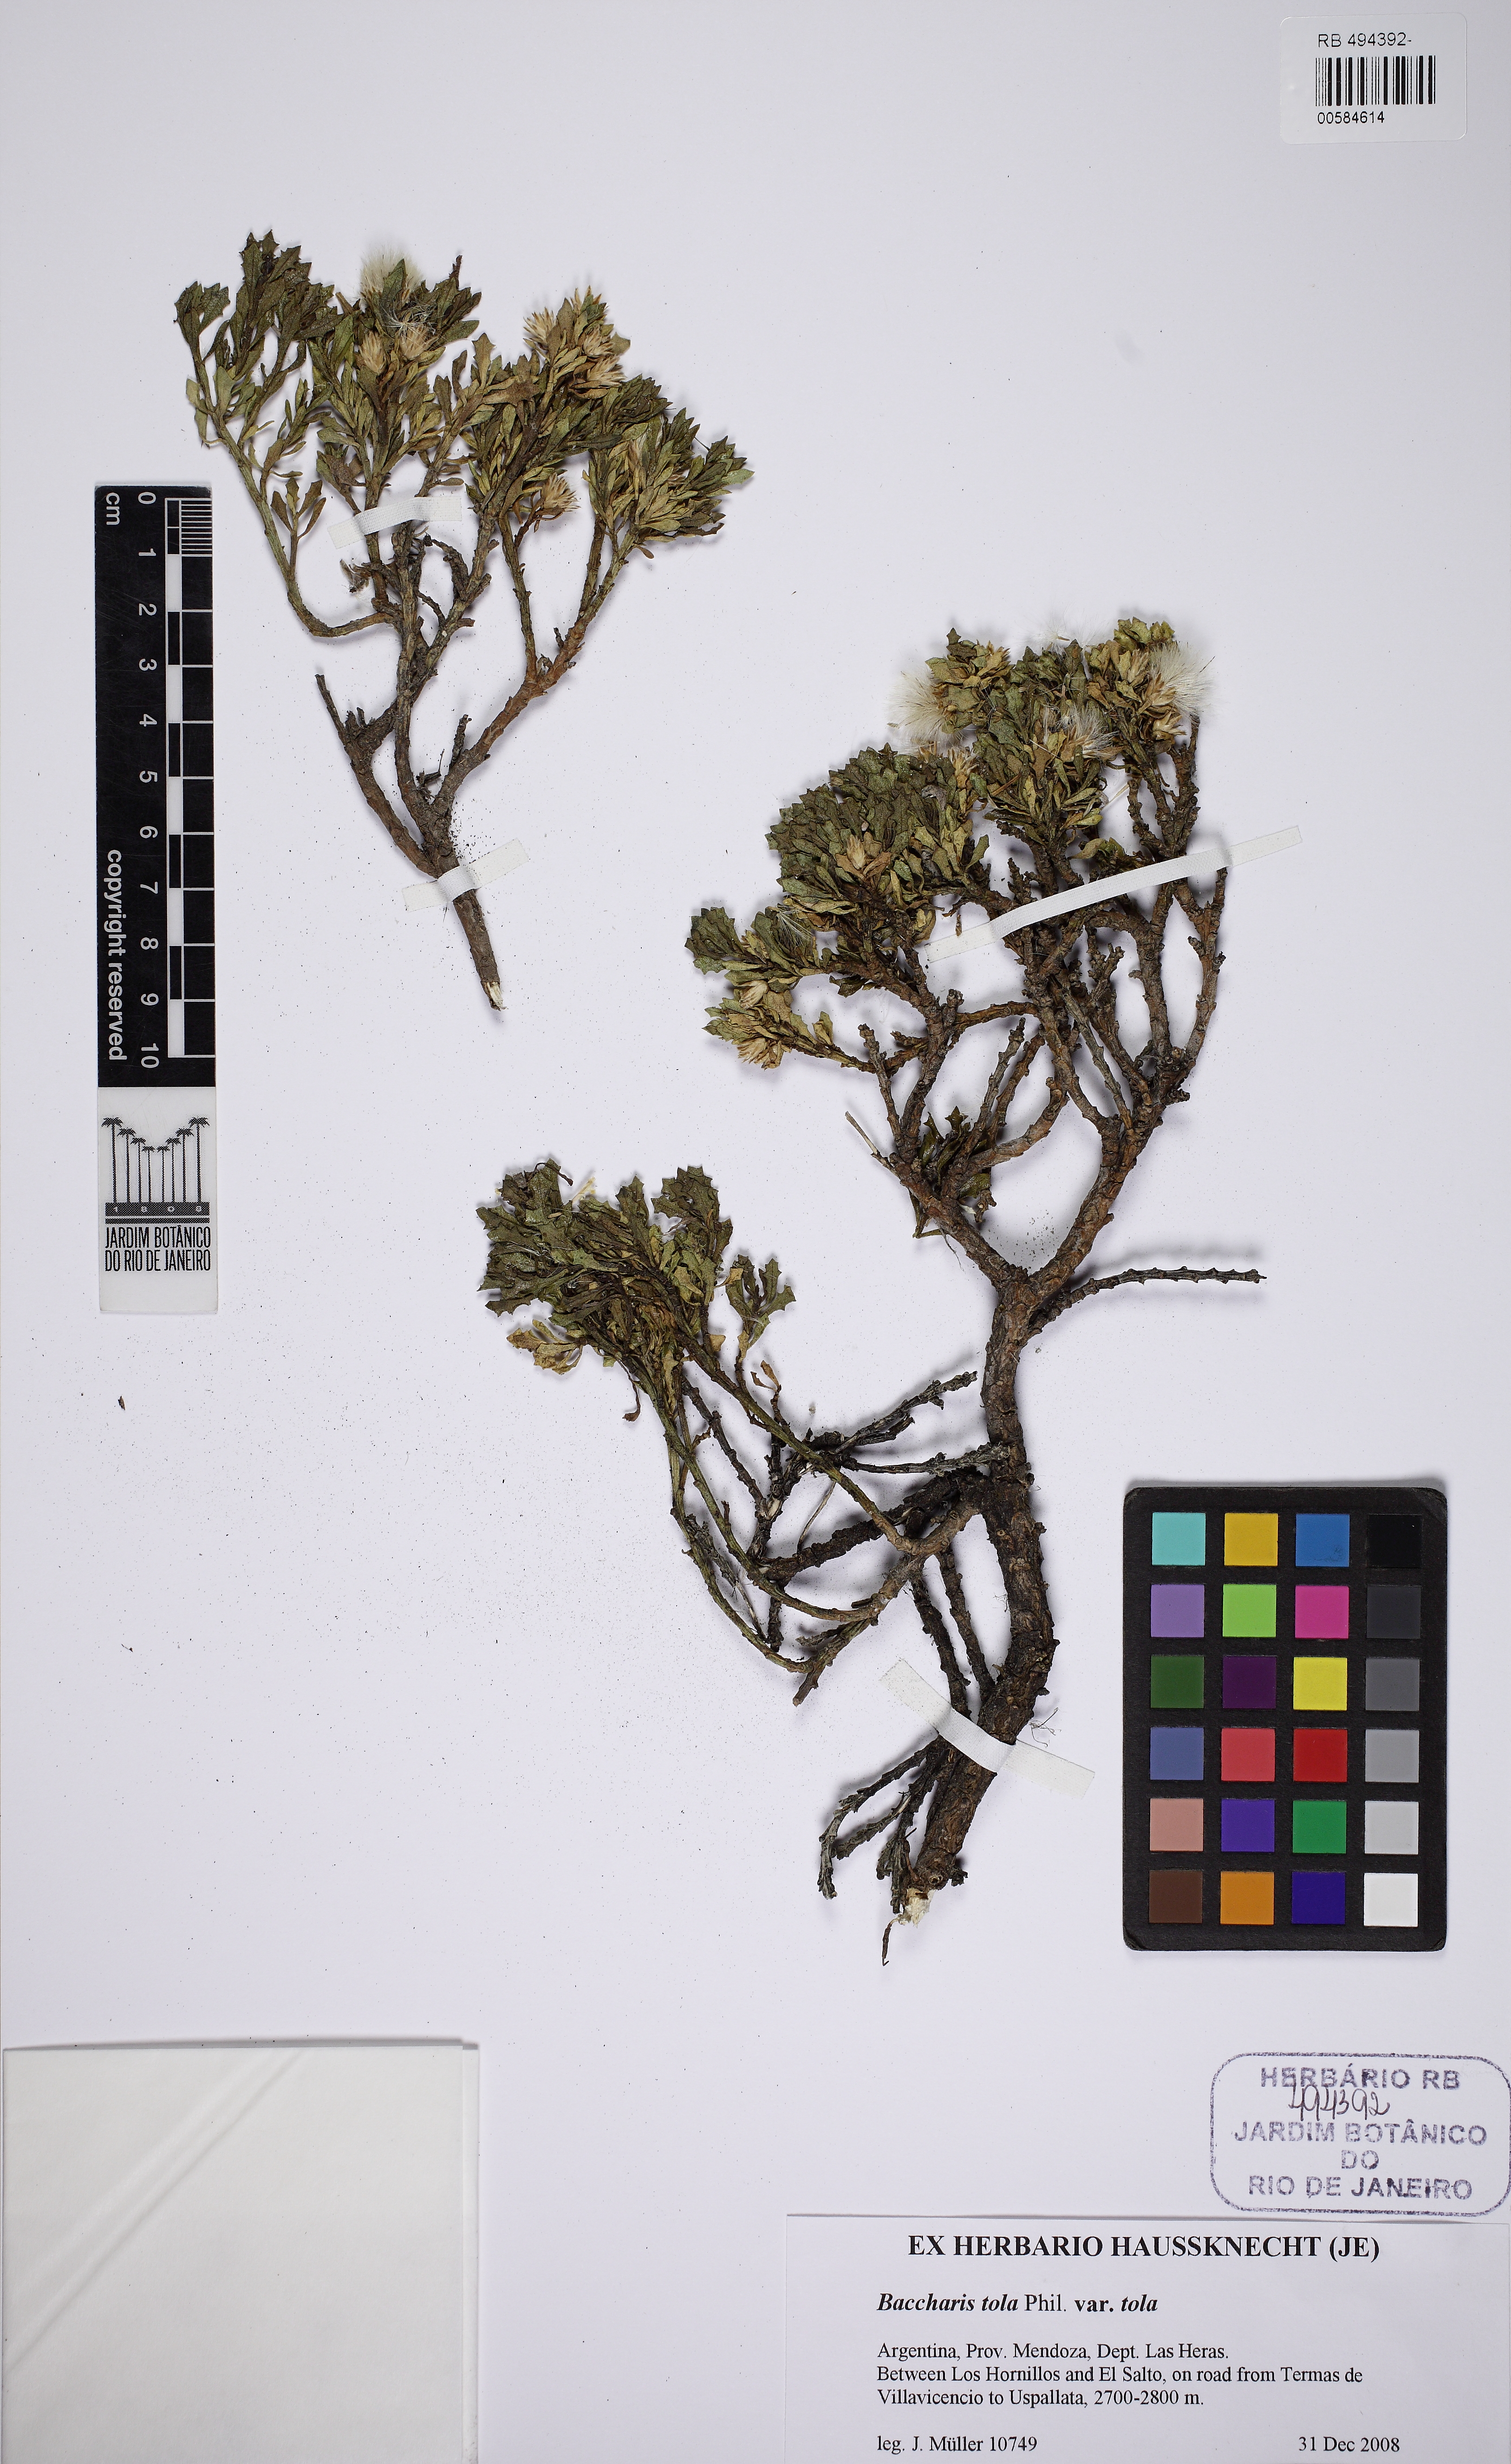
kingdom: Plantae
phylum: Tracheophyta
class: Magnoliopsida
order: Asterales
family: Asteraceae
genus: Baccharis
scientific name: Baccharis tola
